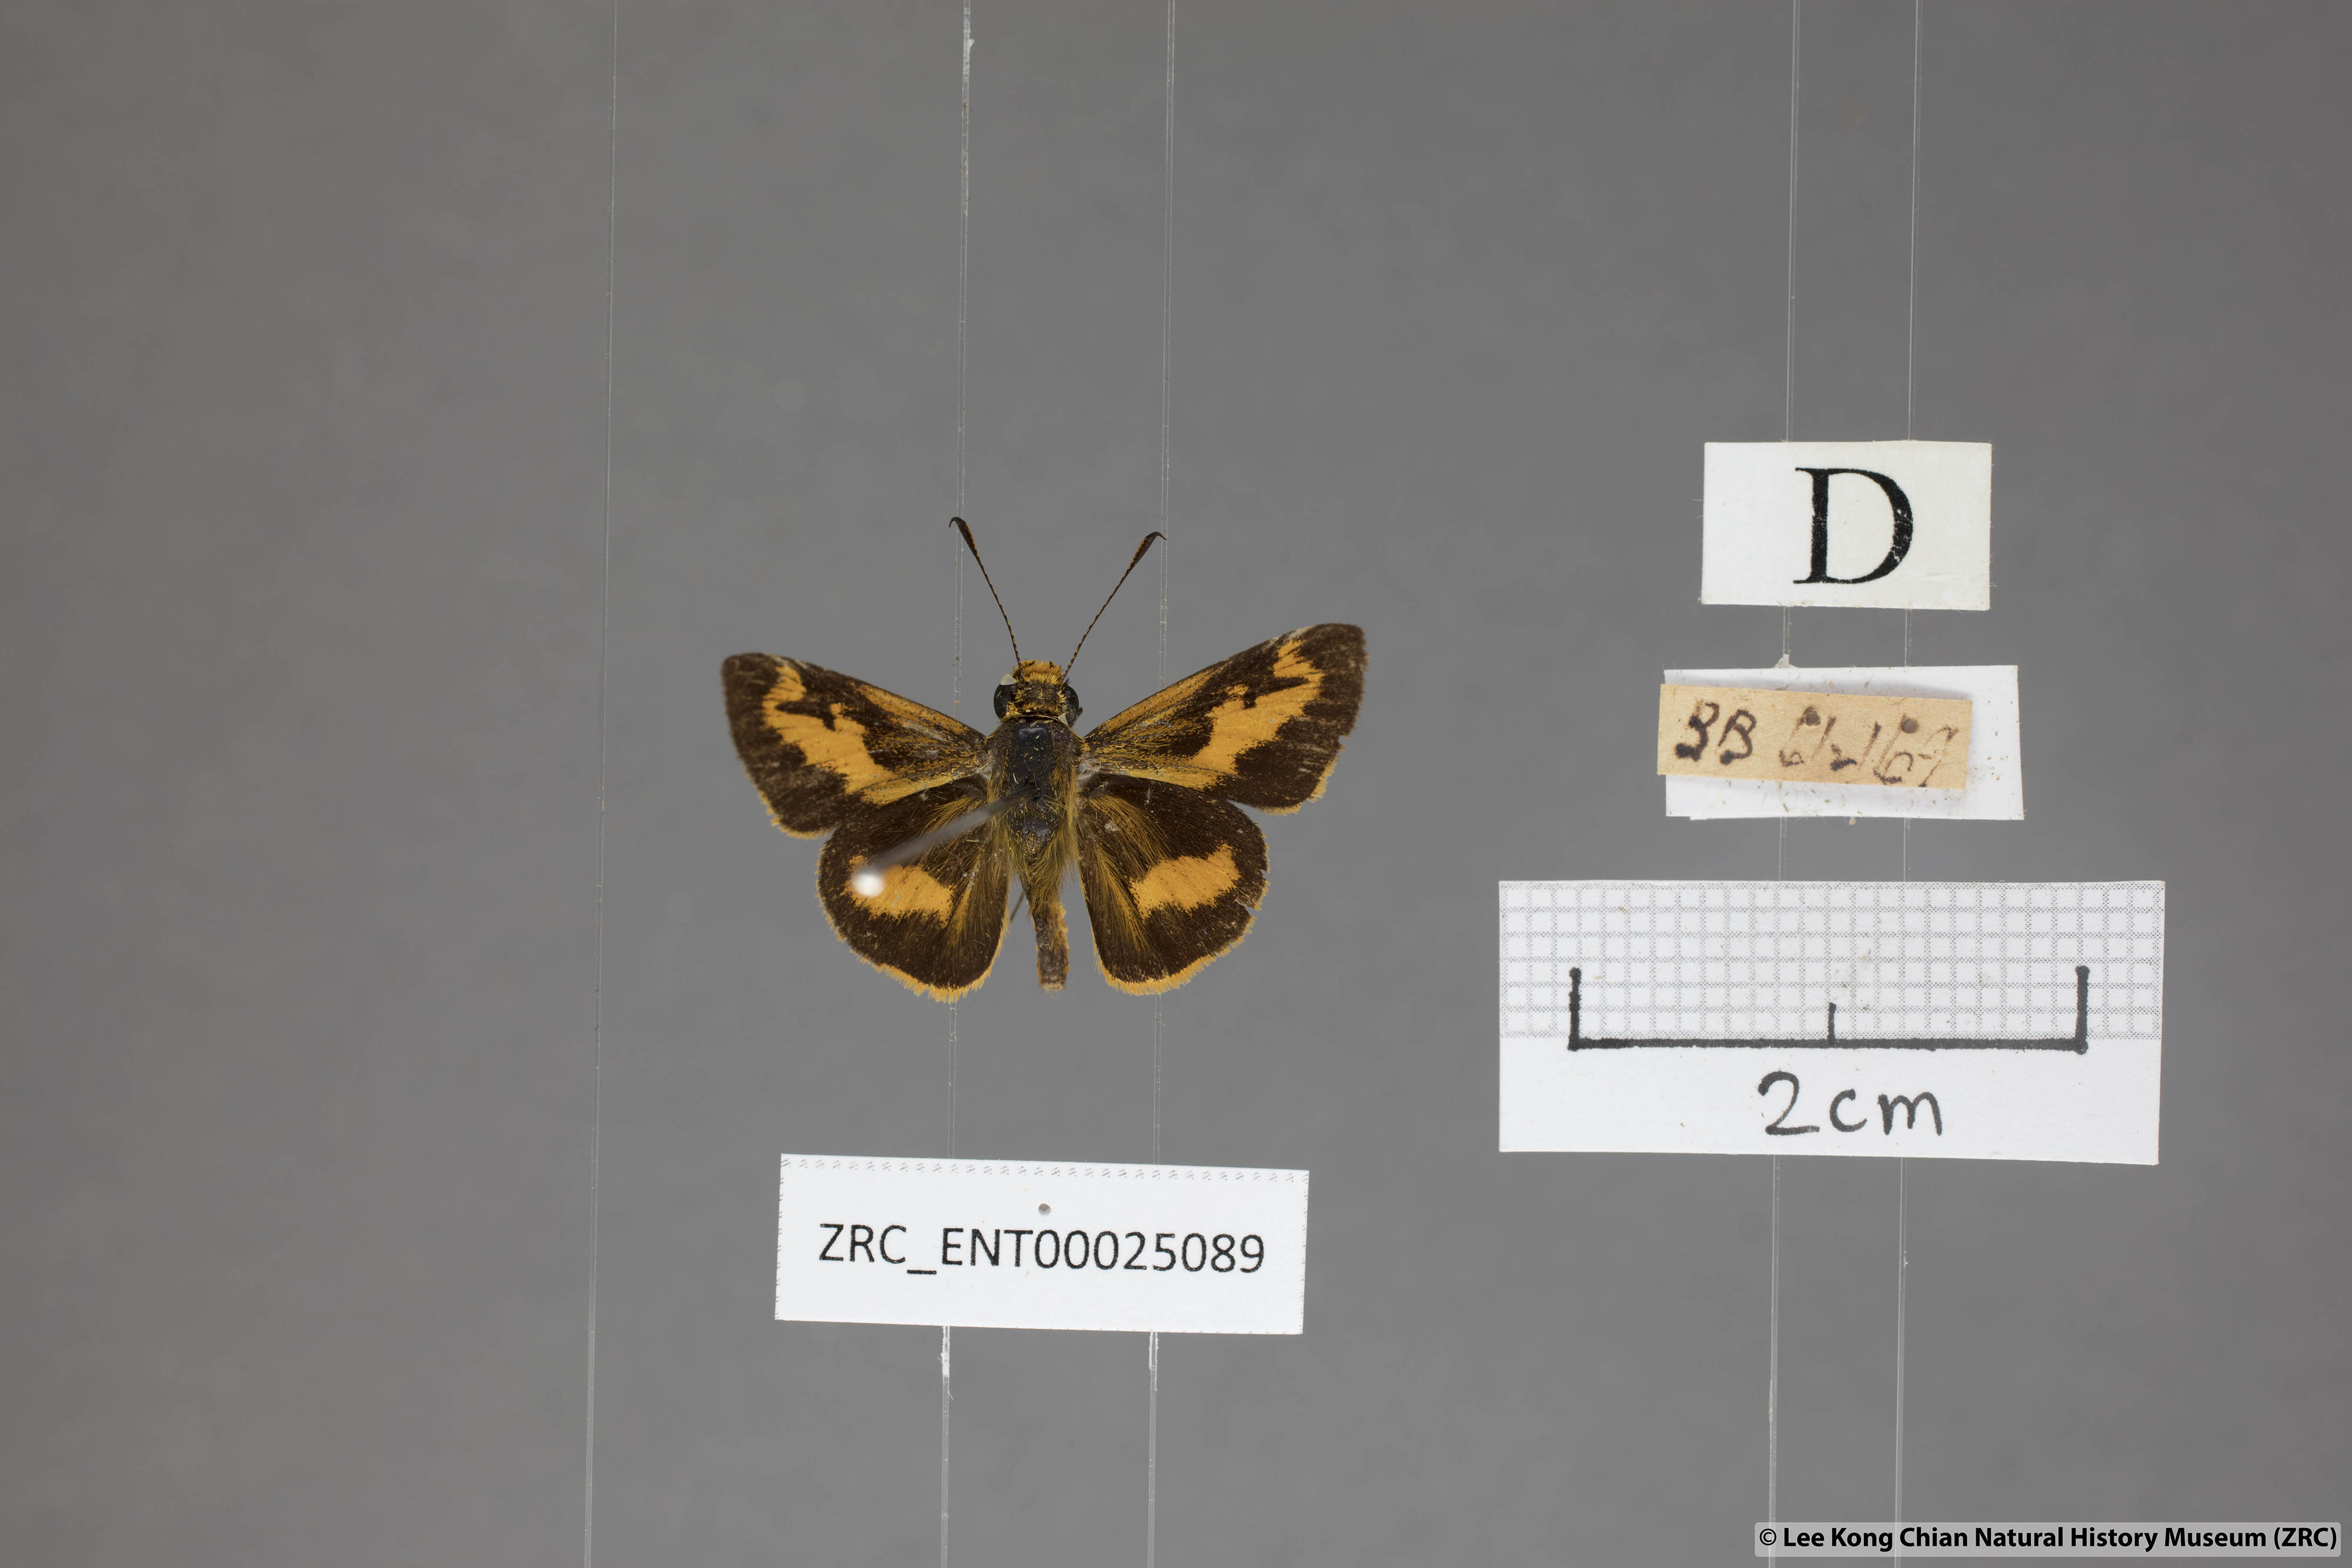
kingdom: Animalia
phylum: Arthropoda
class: Insecta
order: Lepidoptera
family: Hesperiidae
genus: Oriens
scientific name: Oriens gola
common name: Common dartlet
